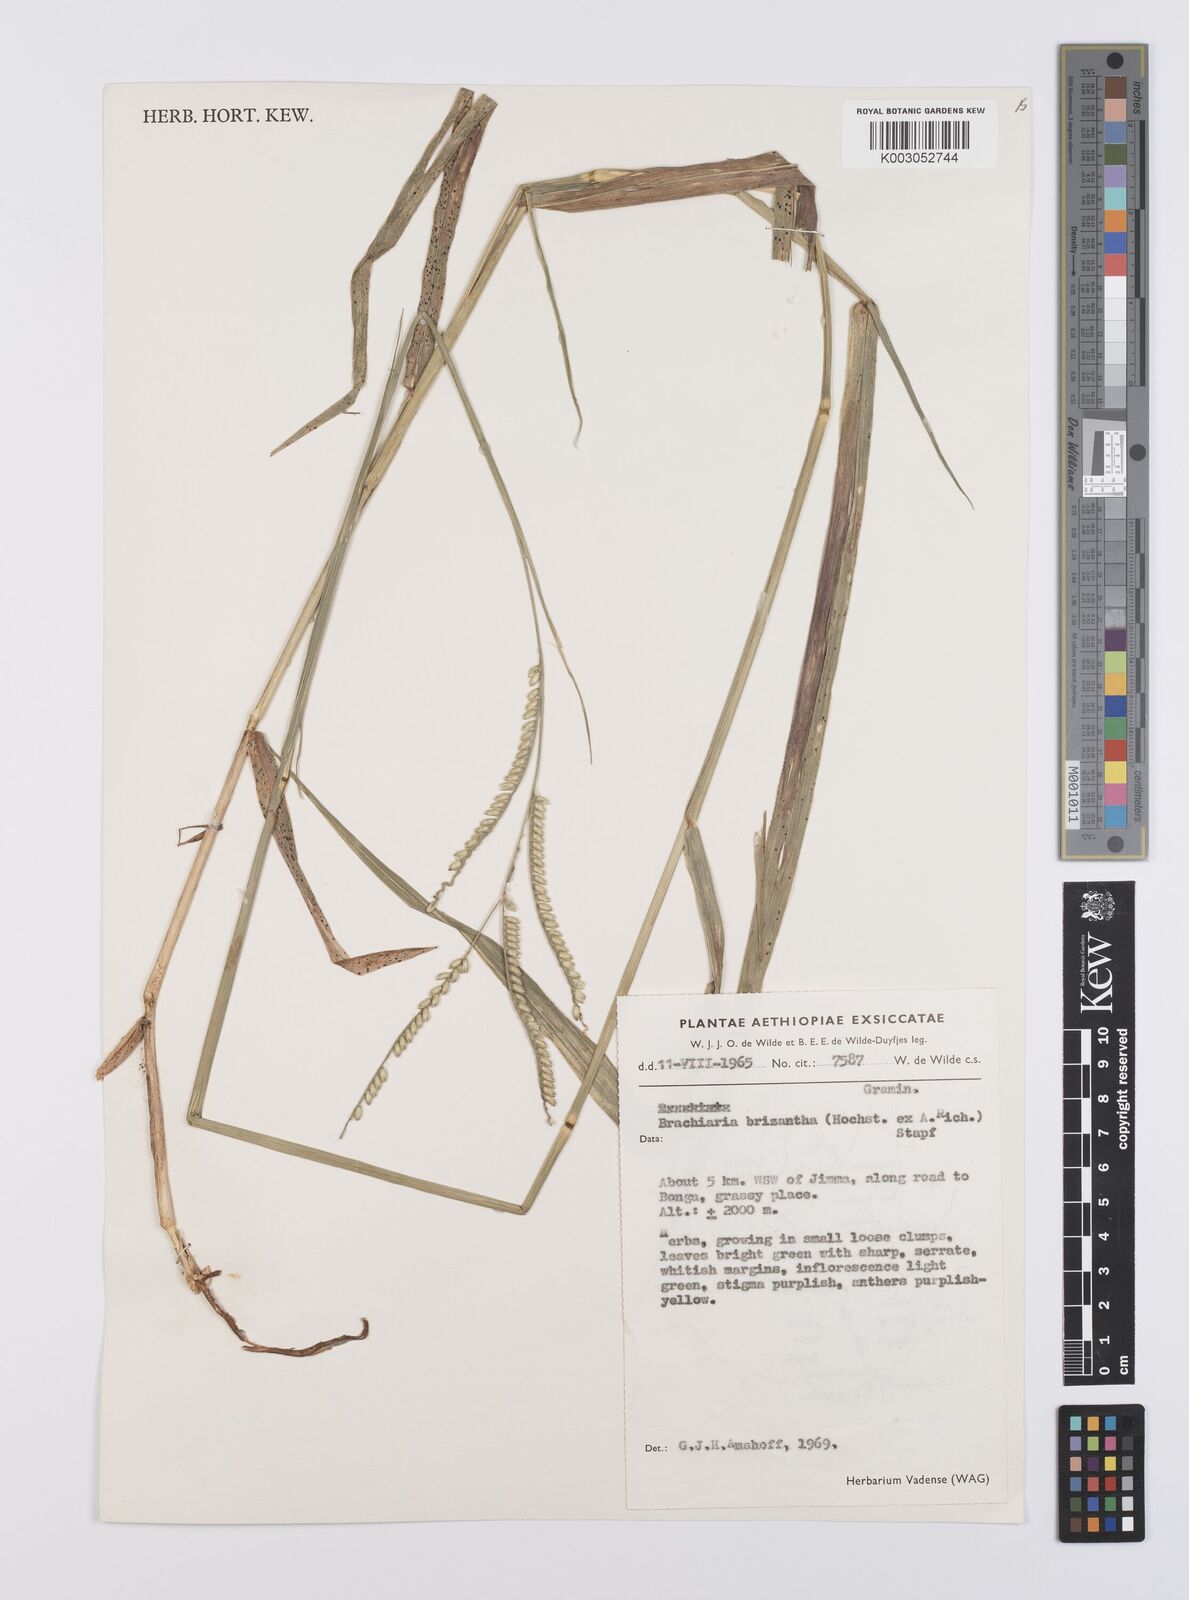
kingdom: Plantae
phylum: Tracheophyta
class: Liliopsida
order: Poales
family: Poaceae
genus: Urochloa
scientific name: Urochloa brizantha
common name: Palisade signalgrass
